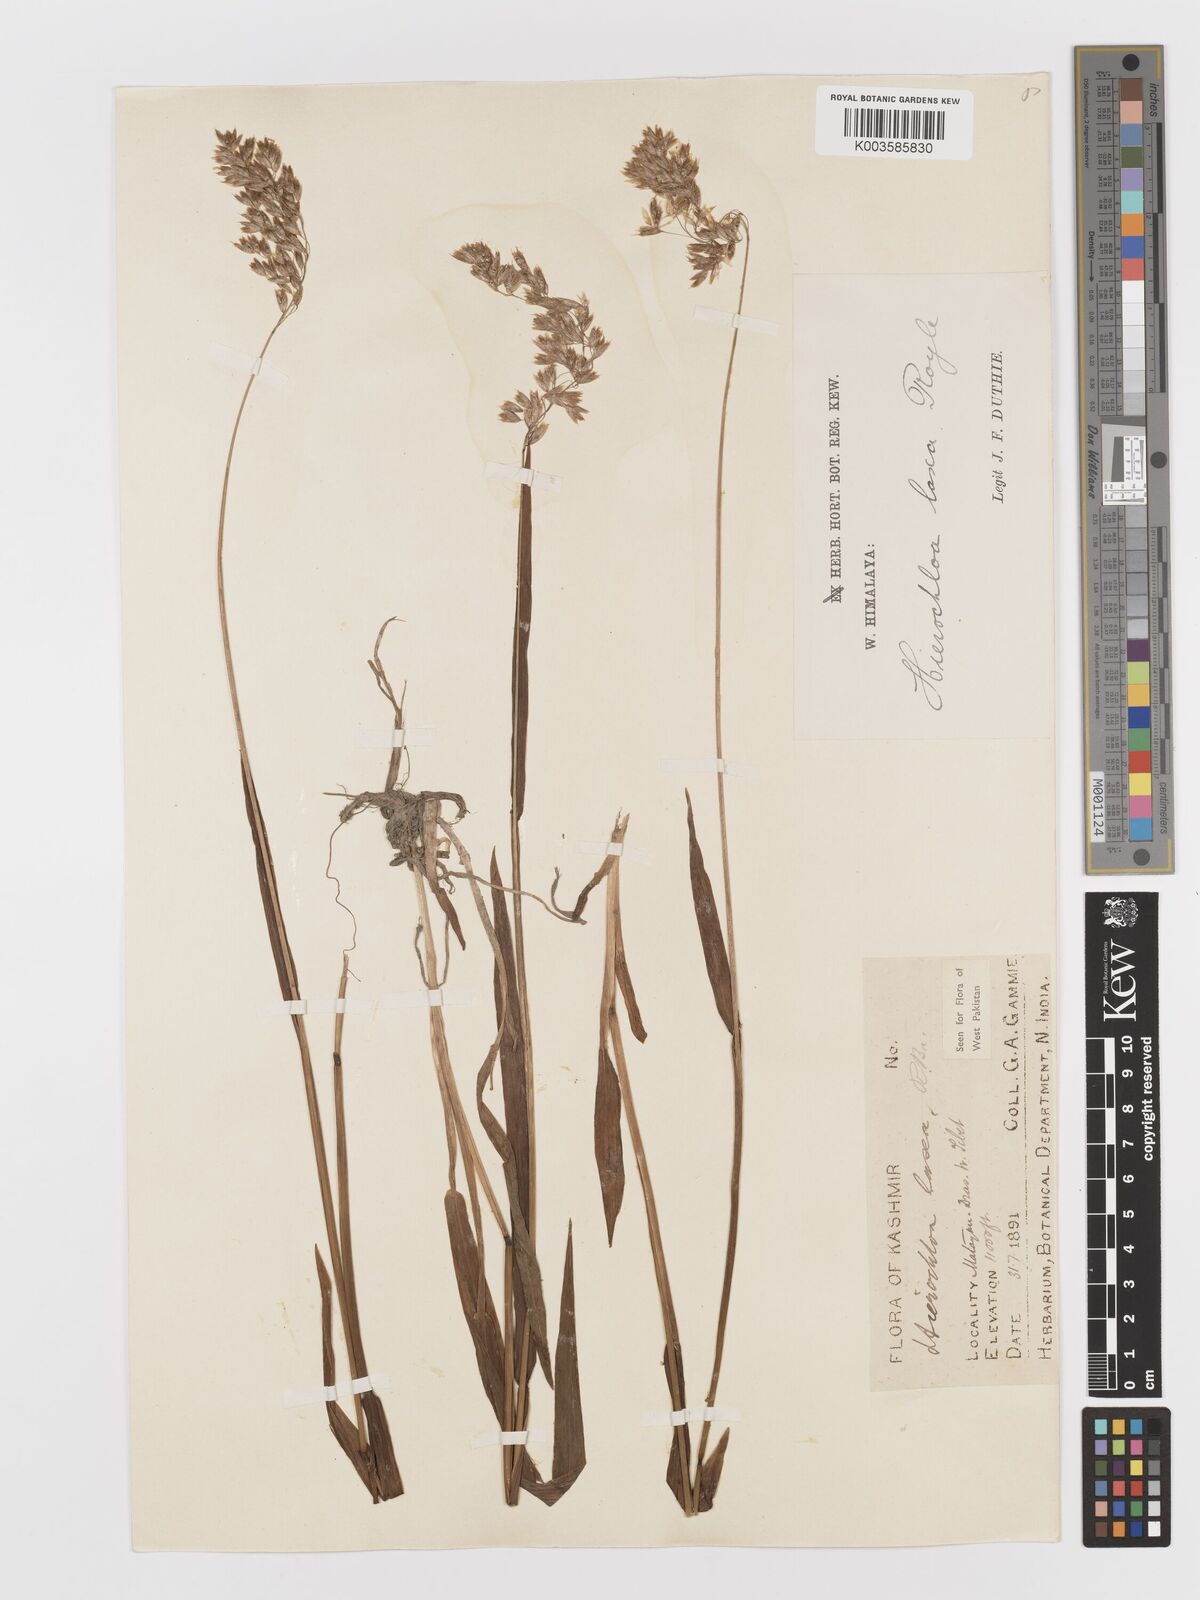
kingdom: Plantae
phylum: Tracheophyta
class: Liliopsida
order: Poales
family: Poaceae
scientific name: Poaceae
